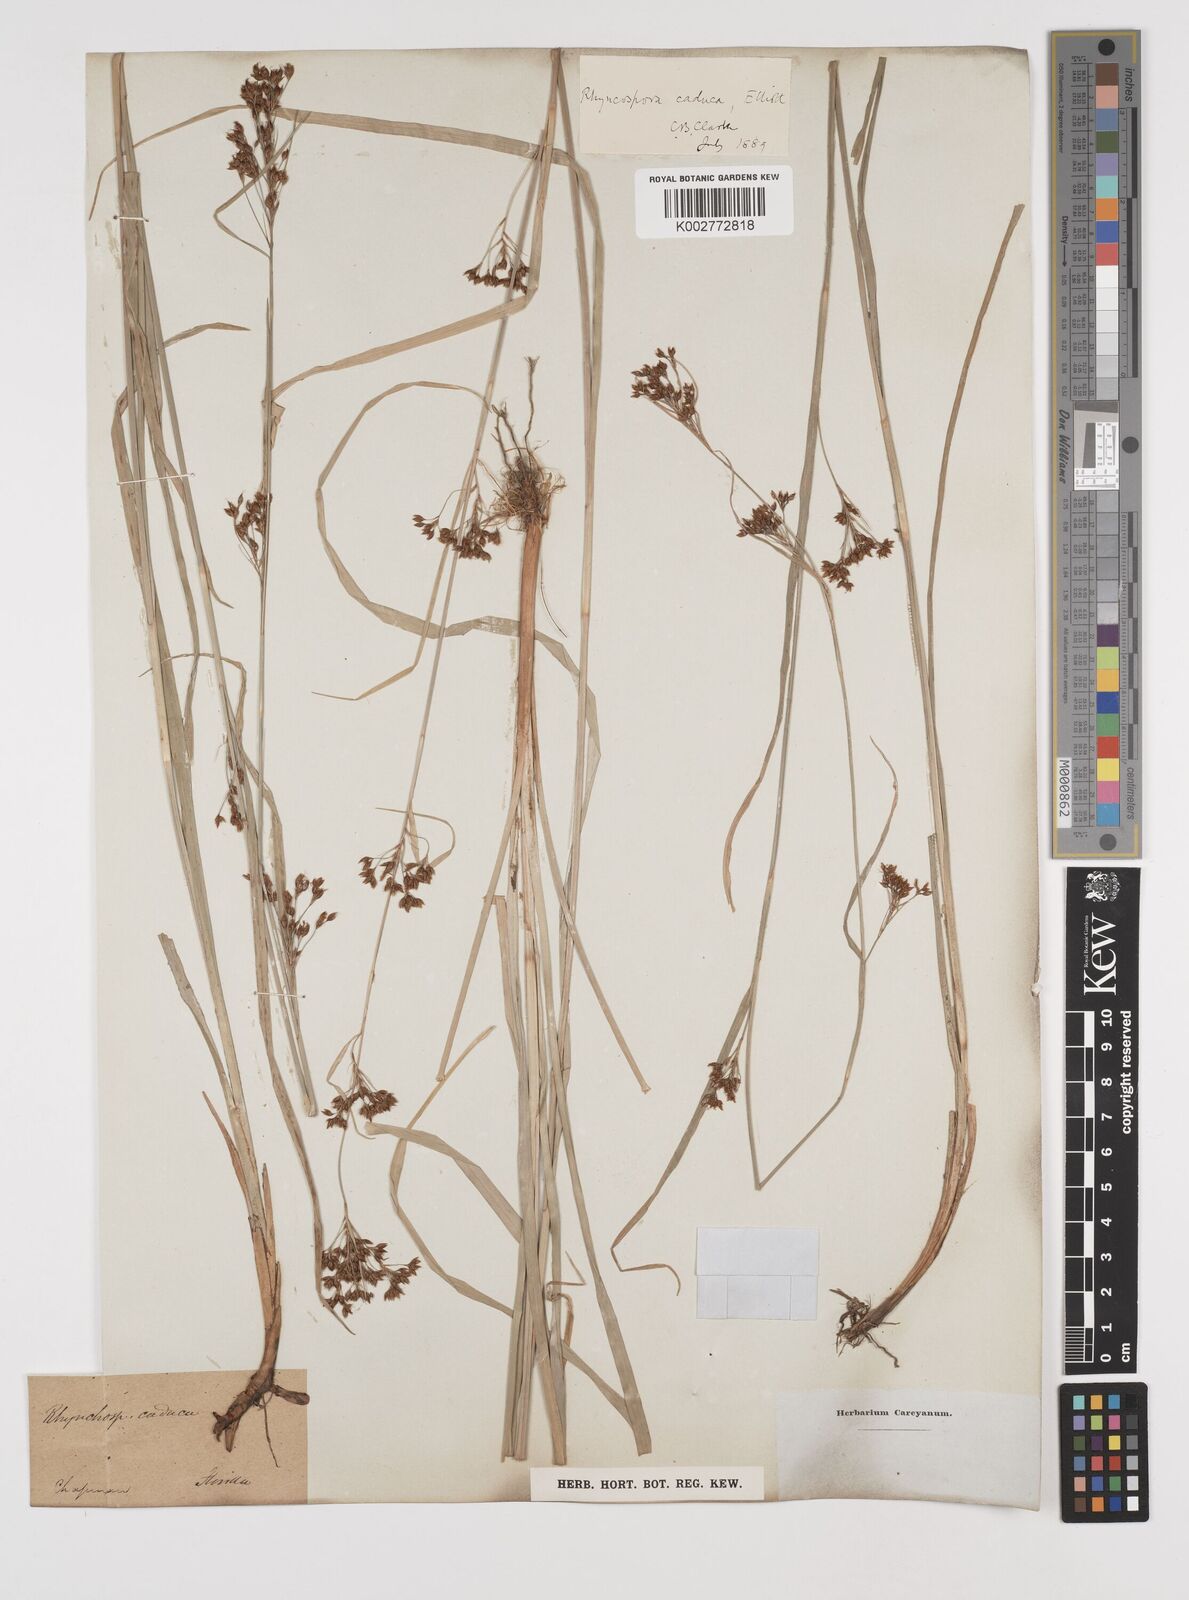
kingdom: Plantae
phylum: Tracheophyta
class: Liliopsida
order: Poales
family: Cyperaceae
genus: Rhynchospora
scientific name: Rhynchospora caduca
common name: Anglestem beaksedge
